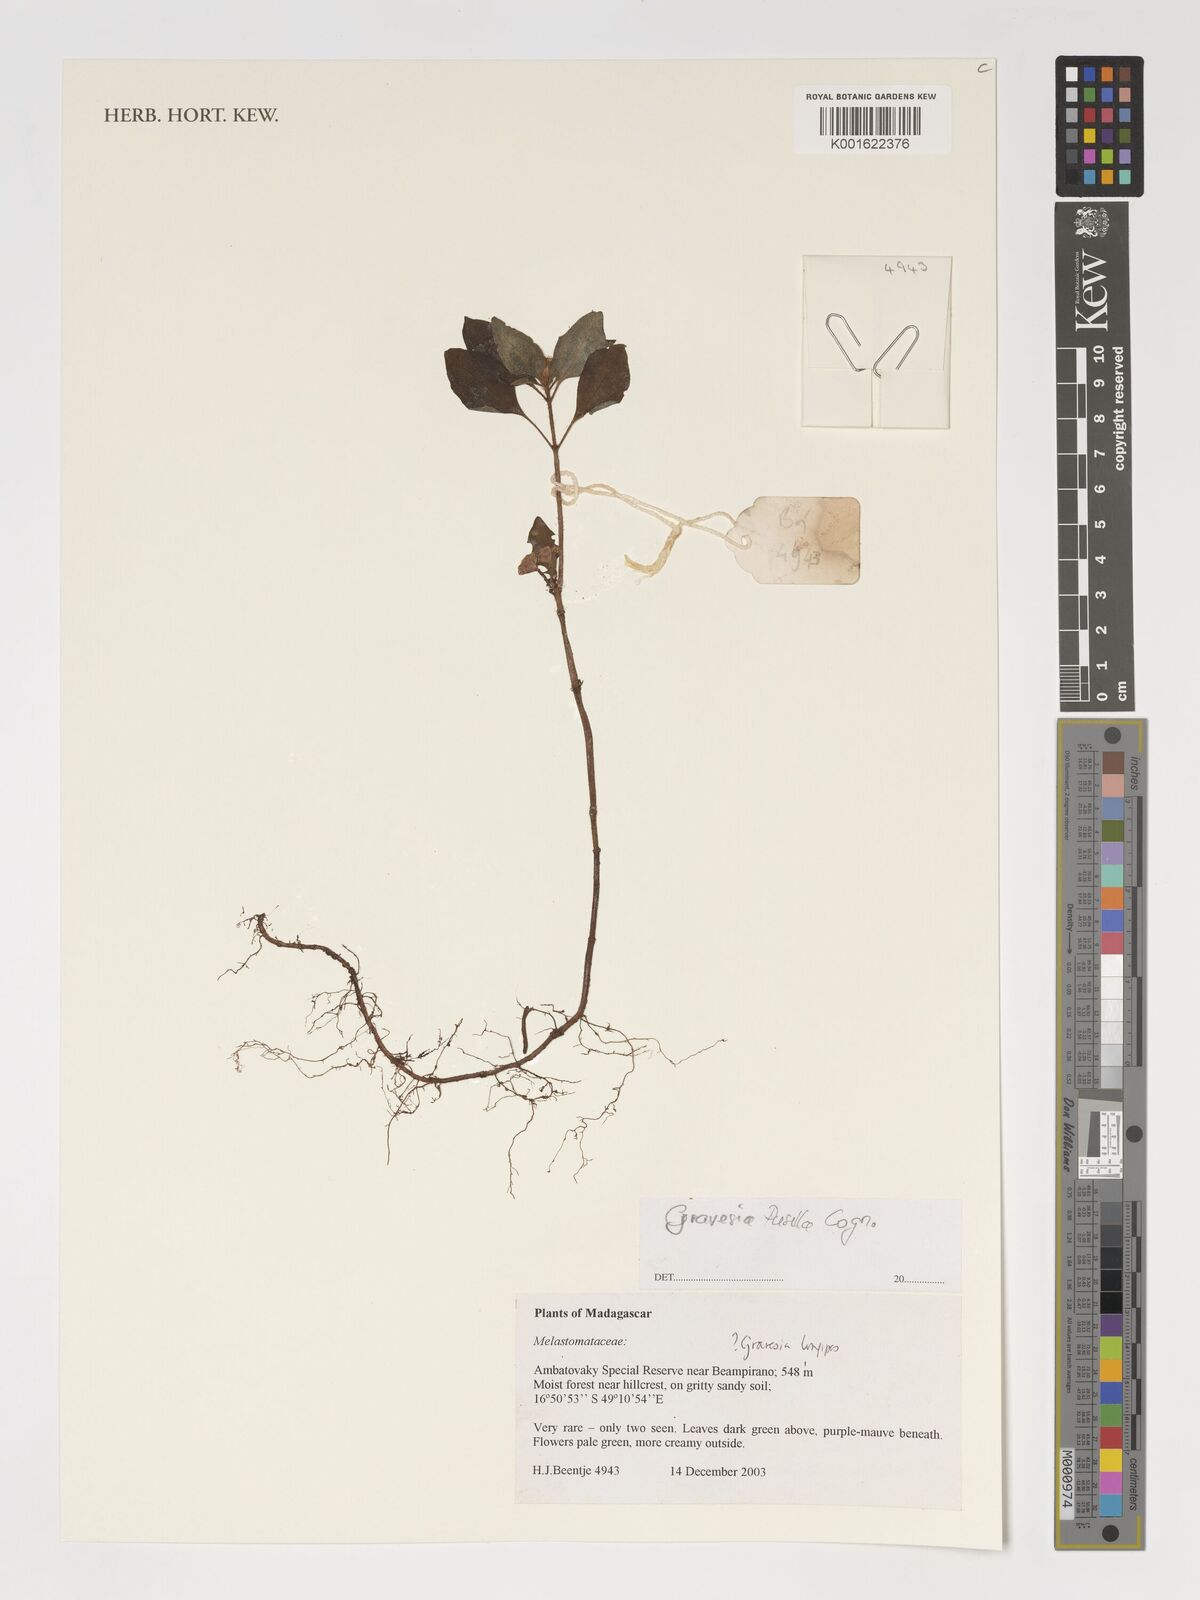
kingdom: Plantae
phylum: Tracheophyta
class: Magnoliopsida
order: Myrtales
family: Melastomataceae
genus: Gravesia
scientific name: Gravesia pusilla
